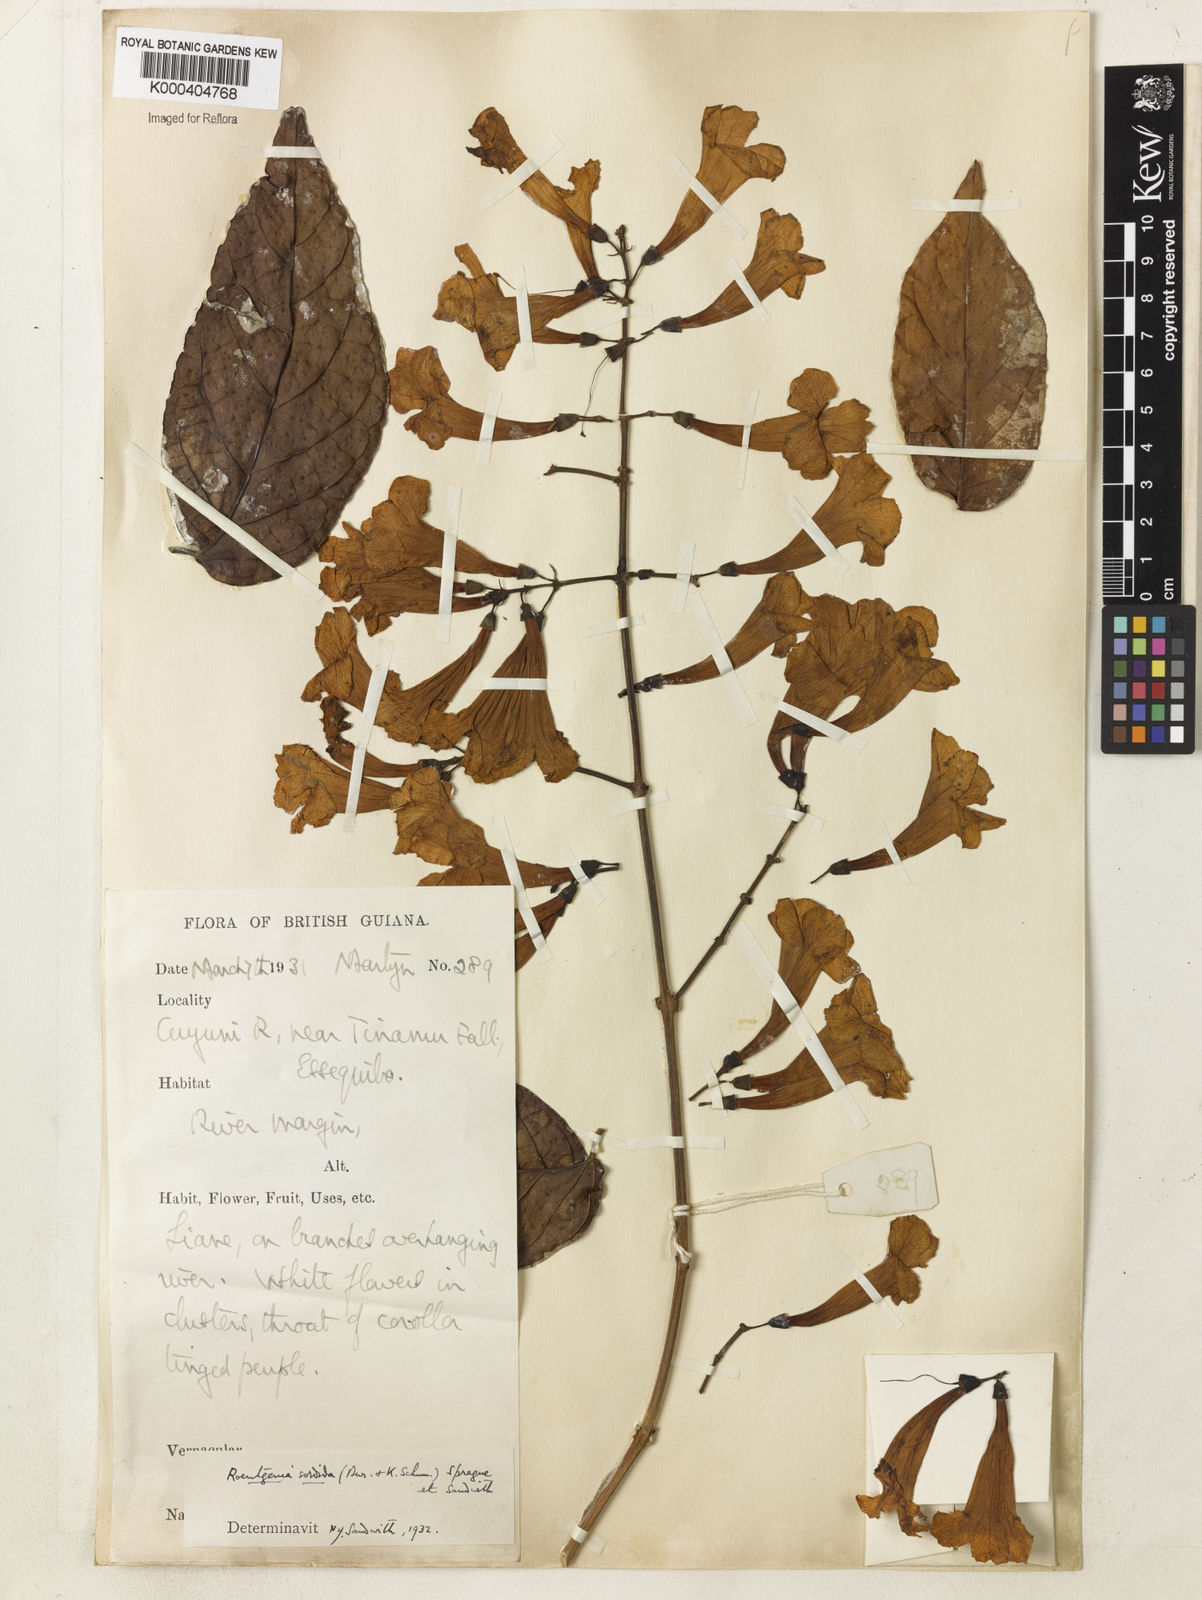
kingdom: Plantae
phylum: Tracheophyta
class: Magnoliopsida
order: Lamiales
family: Bignoniaceae
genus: Bignonia
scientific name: Bignonia sordida
